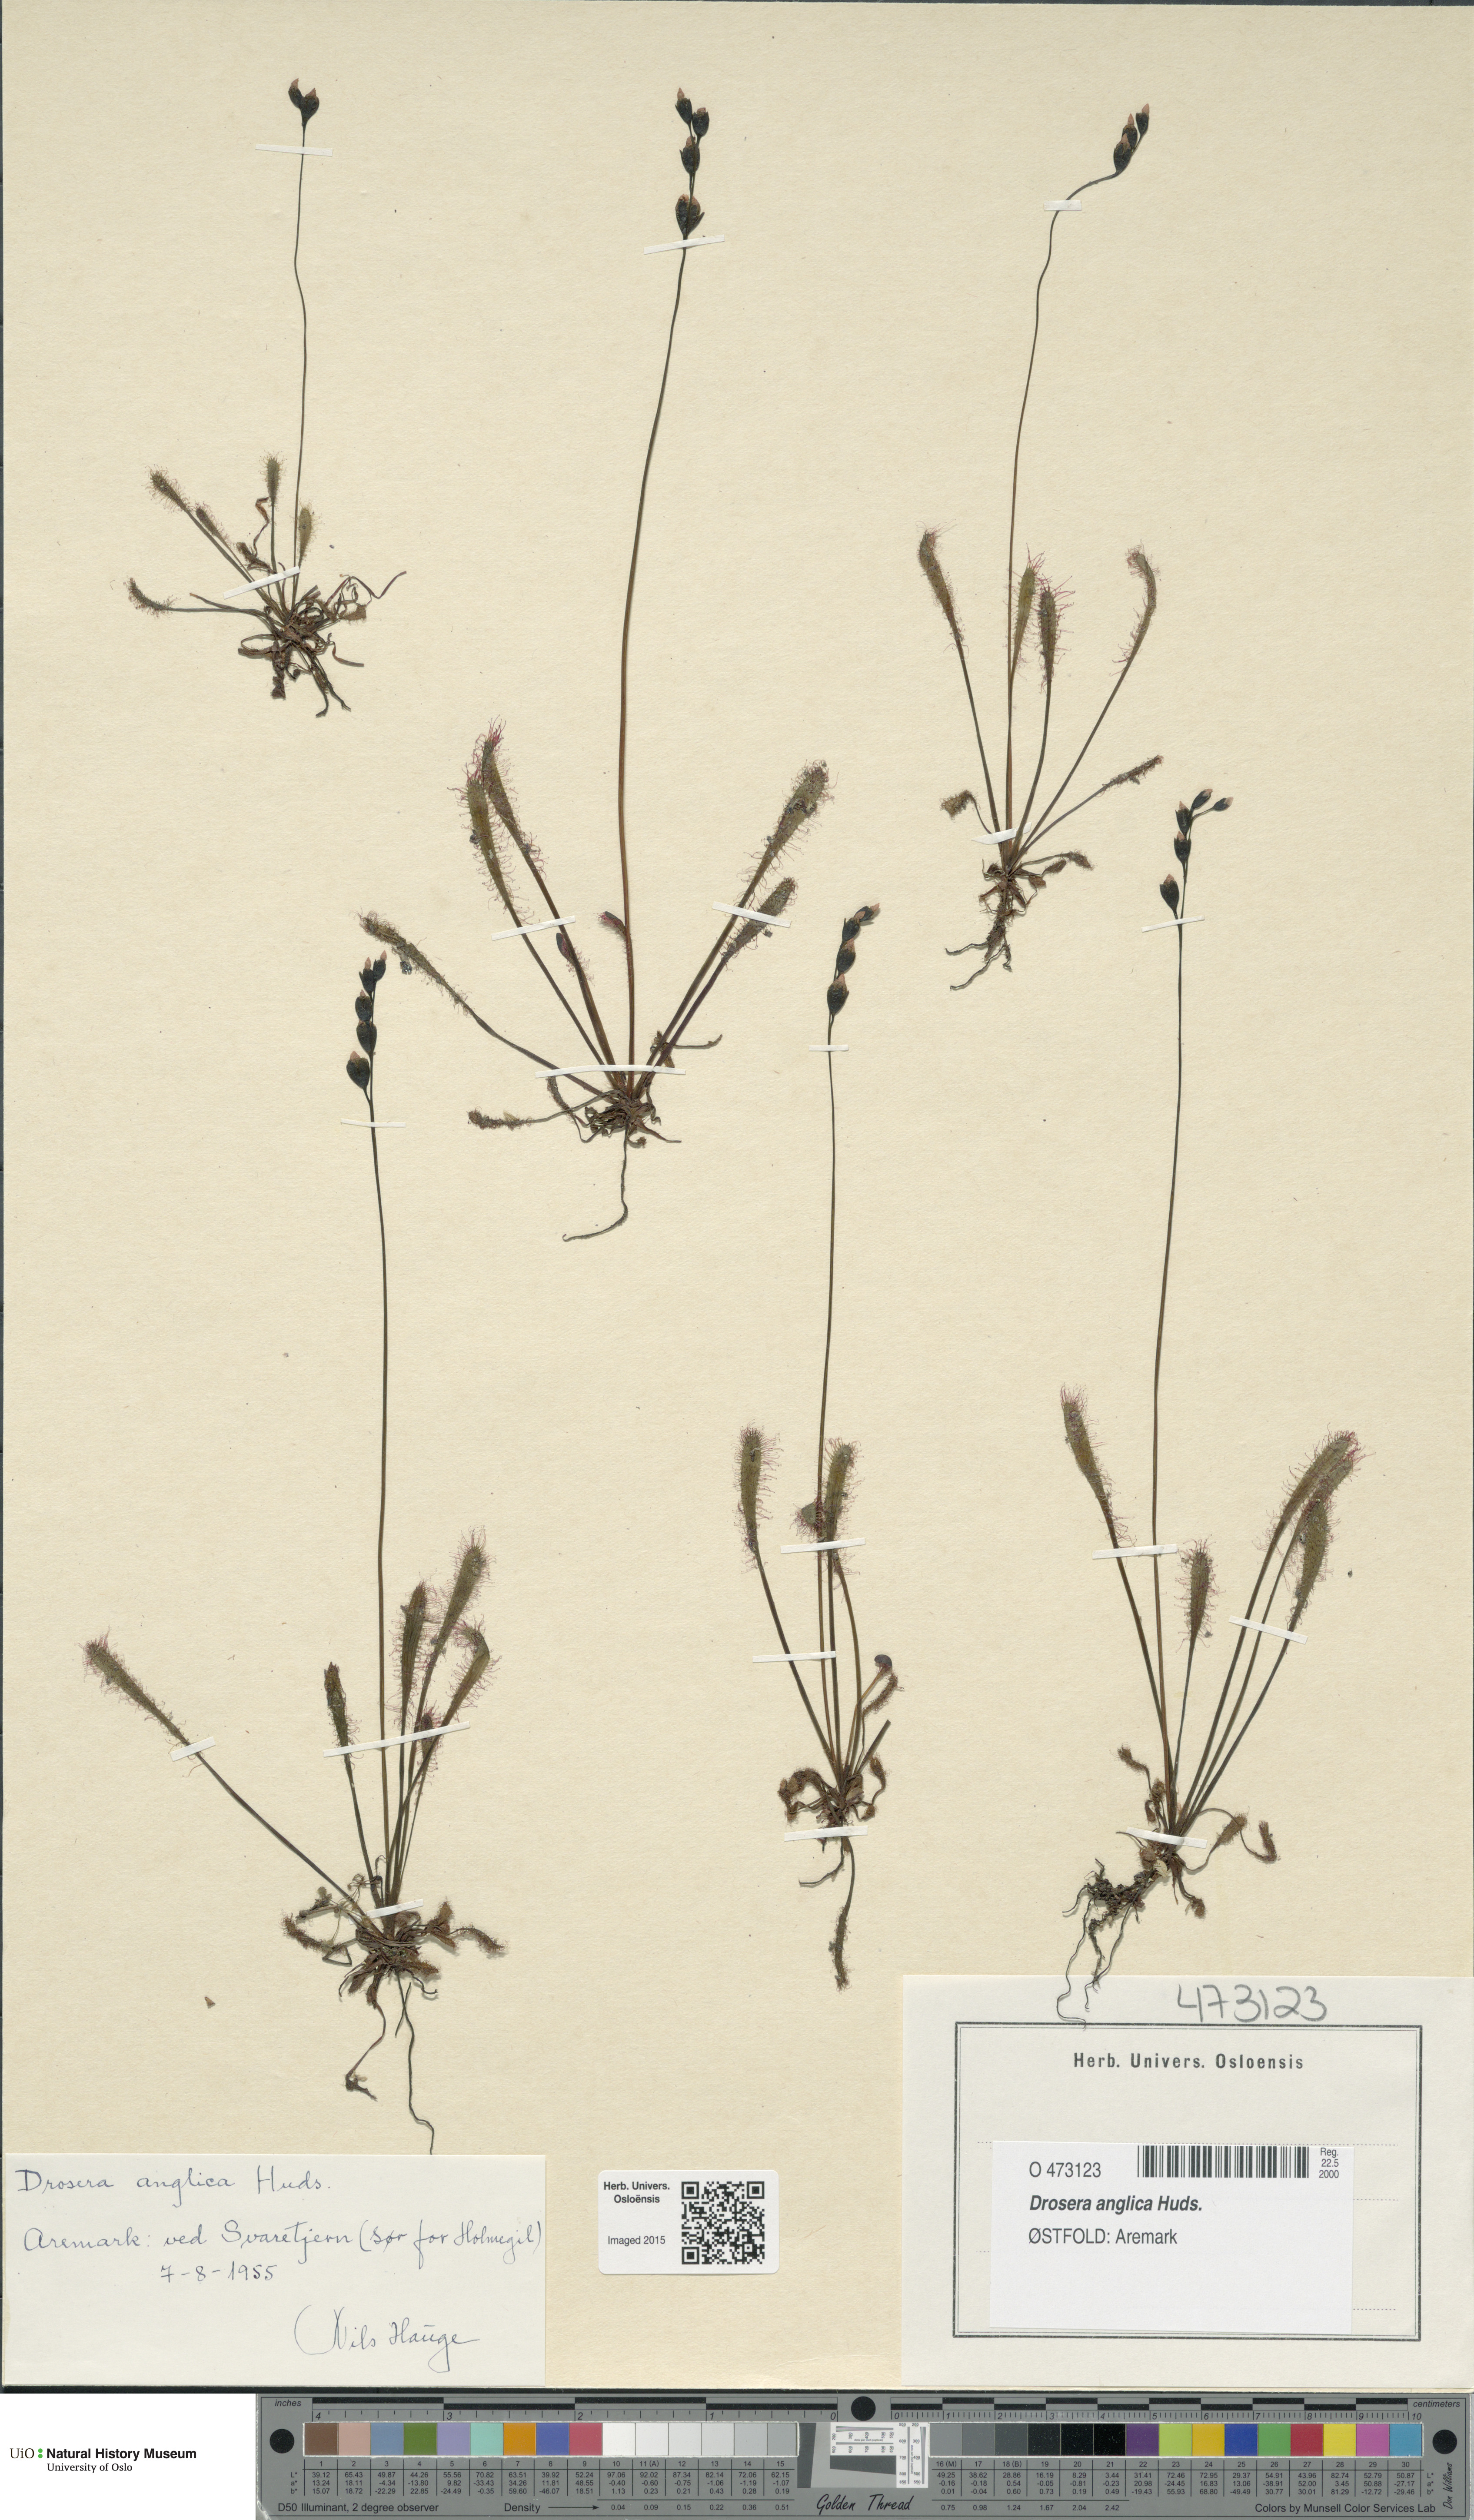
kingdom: Plantae
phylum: Tracheophyta
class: Magnoliopsida
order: Caryophyllales
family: Droseraceae
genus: Drosera
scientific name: Drosera anglica
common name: Great sundew
